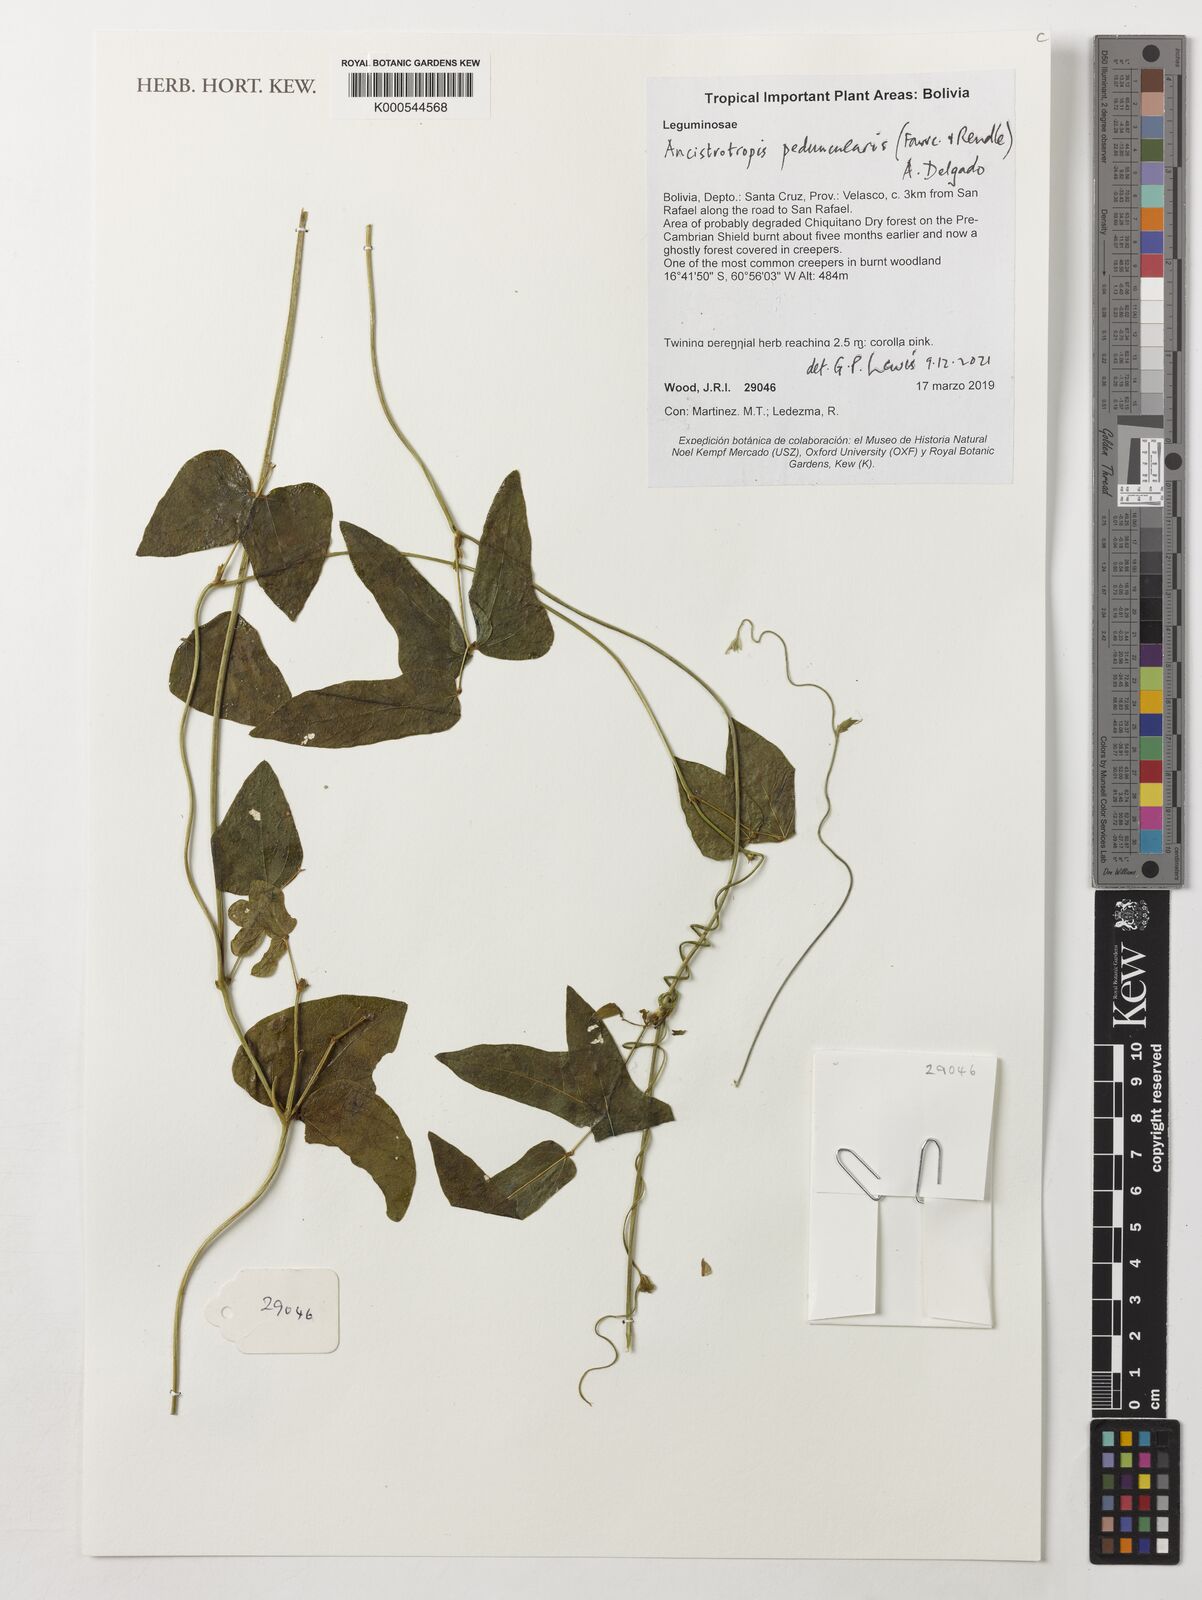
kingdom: Plantae
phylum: Tracheophyta
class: Magnoliopsida
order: Fabales
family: Fabaceae
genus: Ancistrotropis
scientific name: Ancistrotropis peduncularis
